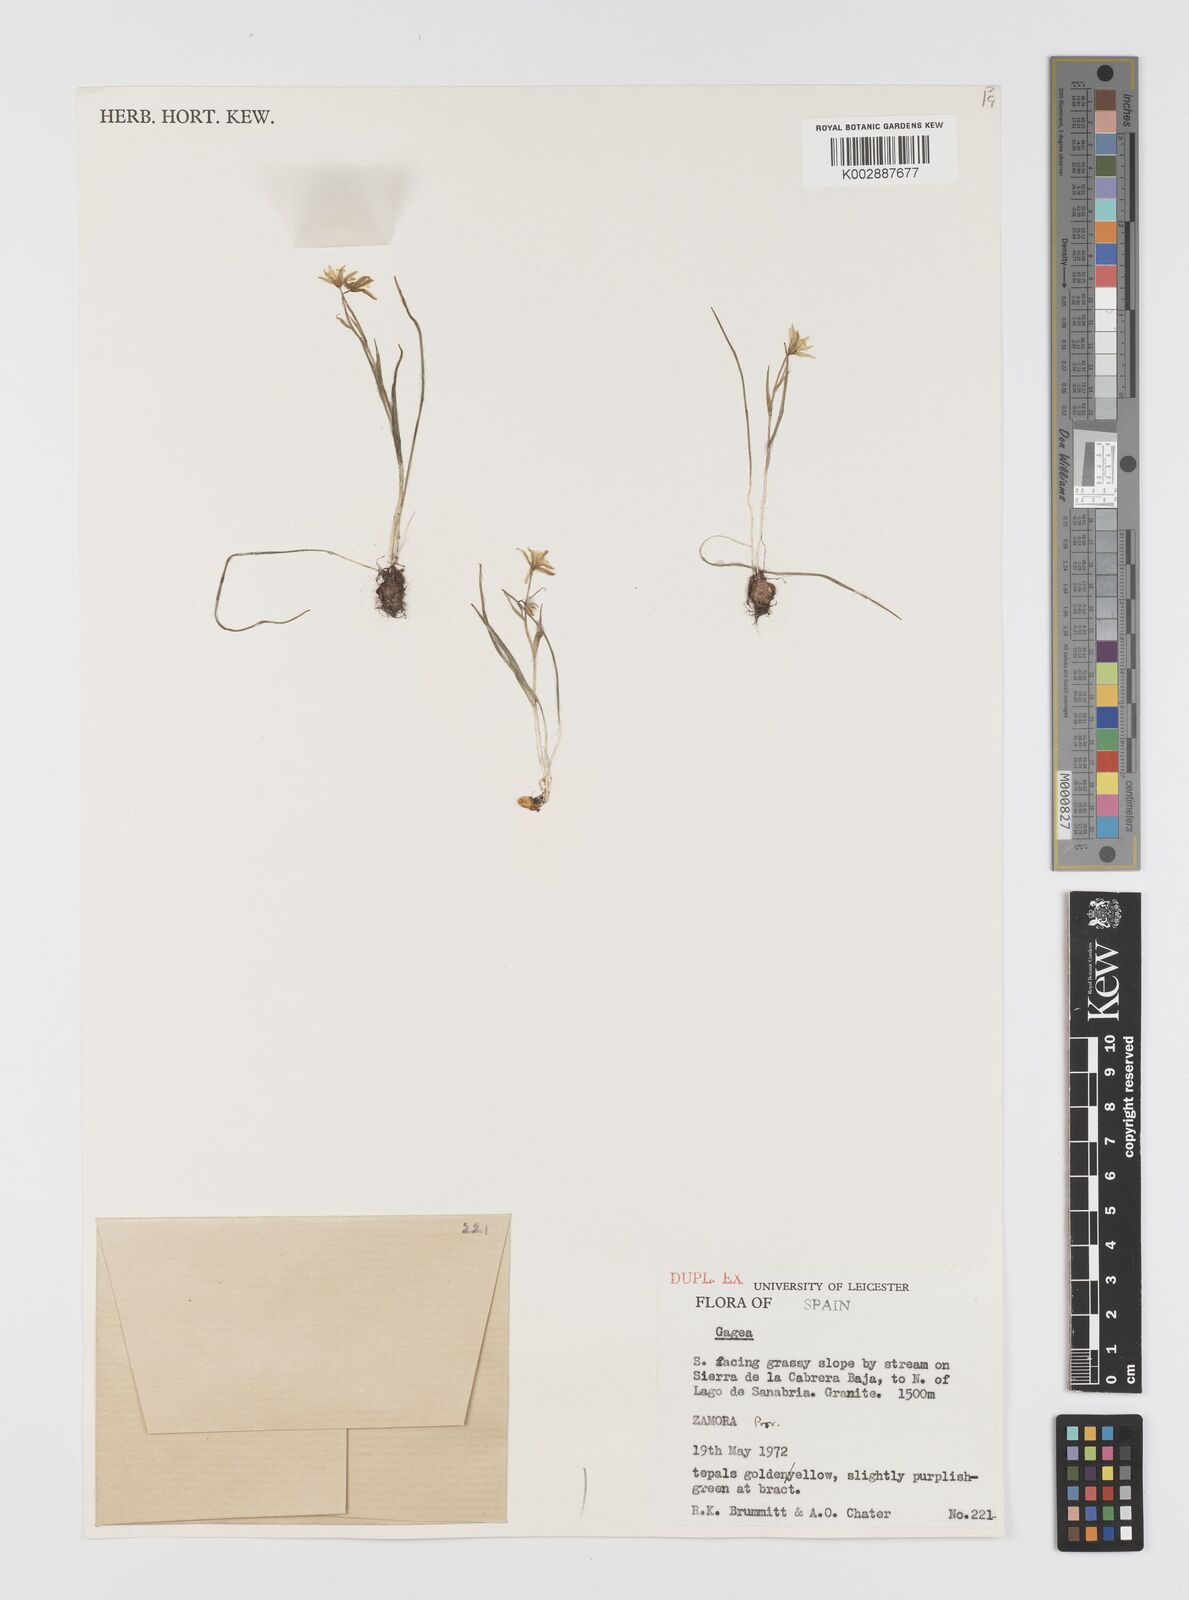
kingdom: Plantae
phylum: Tracheophyta
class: Liliopsida
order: Liliales
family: Liliaceae
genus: Gagea
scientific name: Gagea
